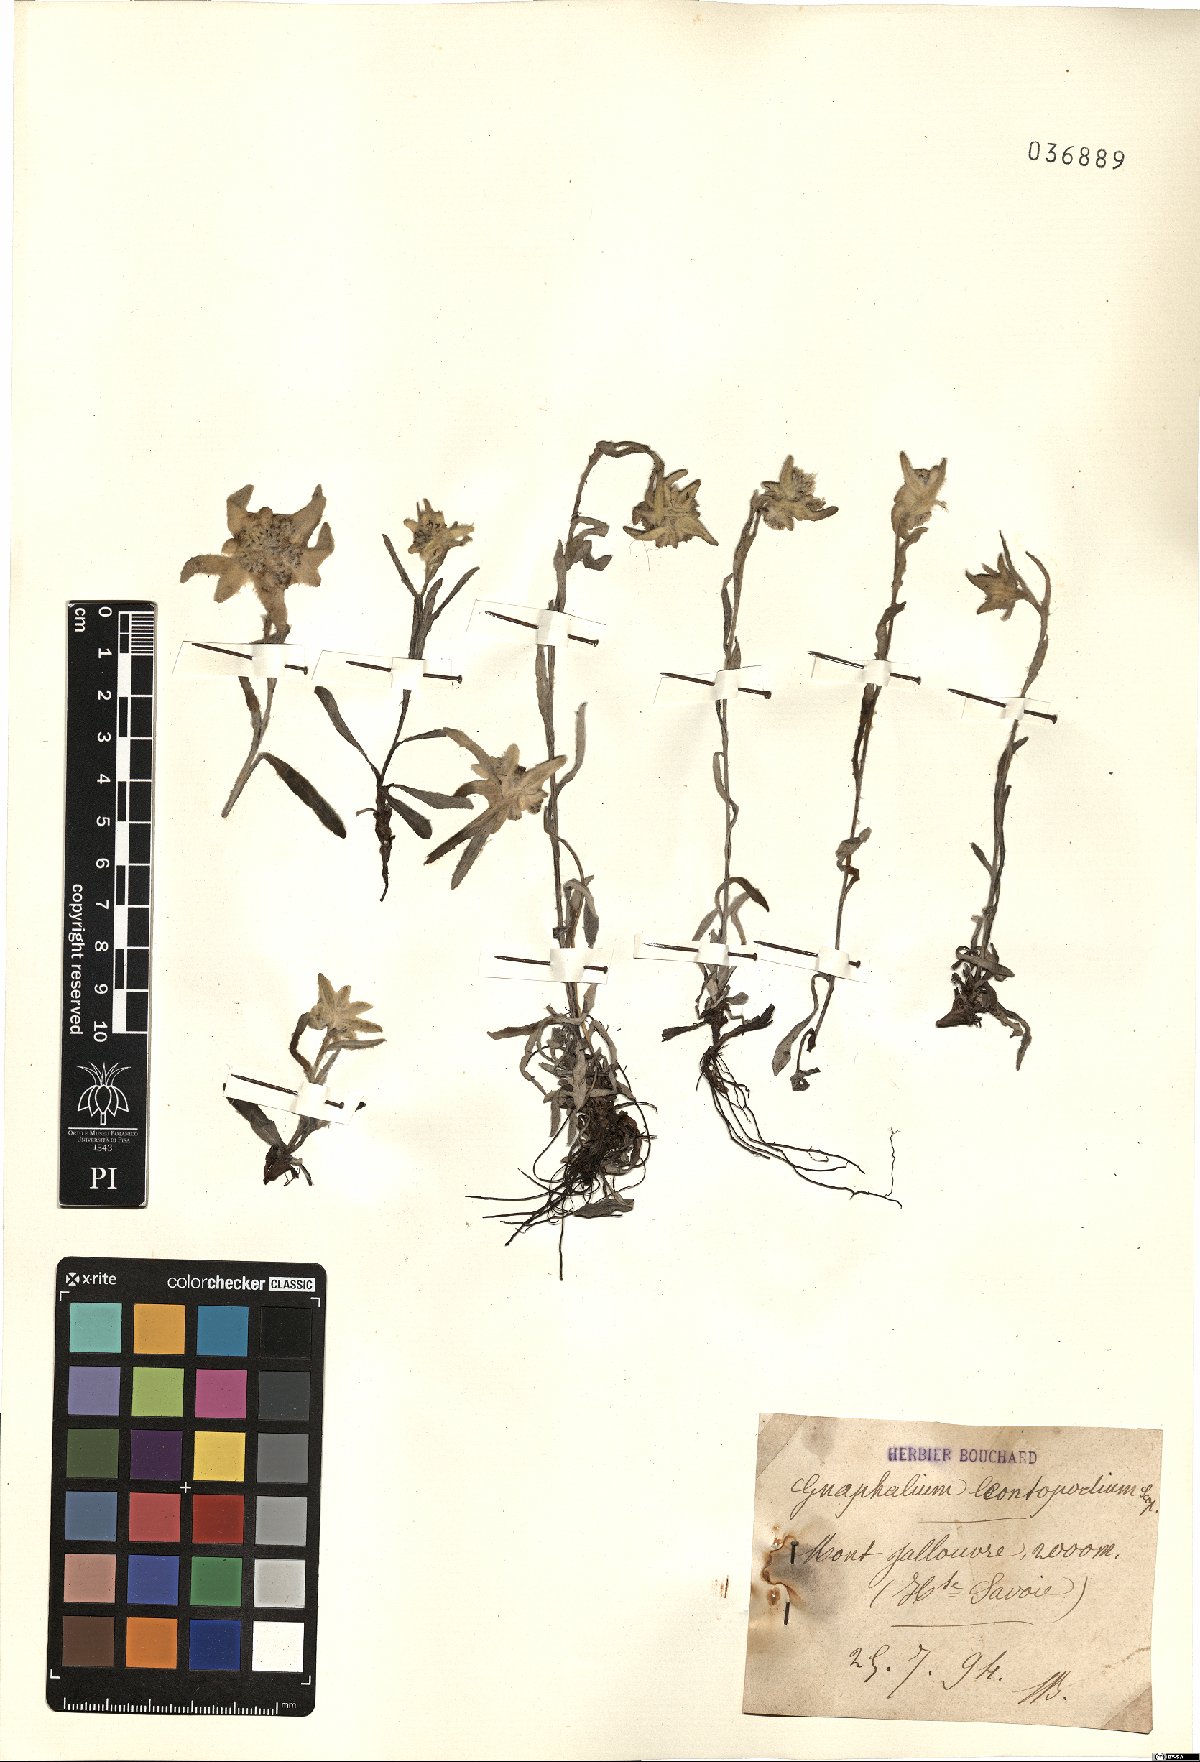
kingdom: Plantae
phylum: Tracheophyta
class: Magnoliopsida
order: Asterales
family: Asteraceae
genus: Leontopodium
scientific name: Leontopodium nivale
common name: Edelweiss
